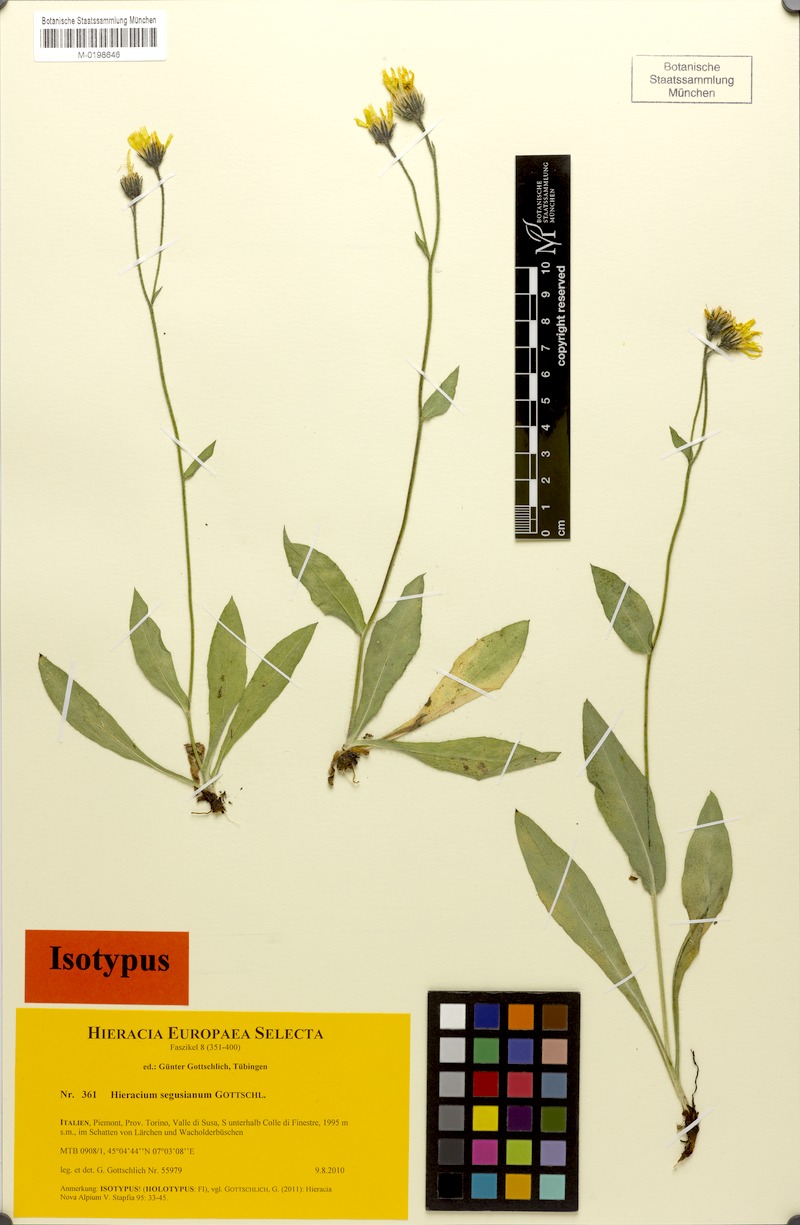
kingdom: Plantae
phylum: Tracheophyta
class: Magnoliopsida
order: Asterales
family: Asteraceae
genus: Hieracium
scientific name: Hieracium segusianum
